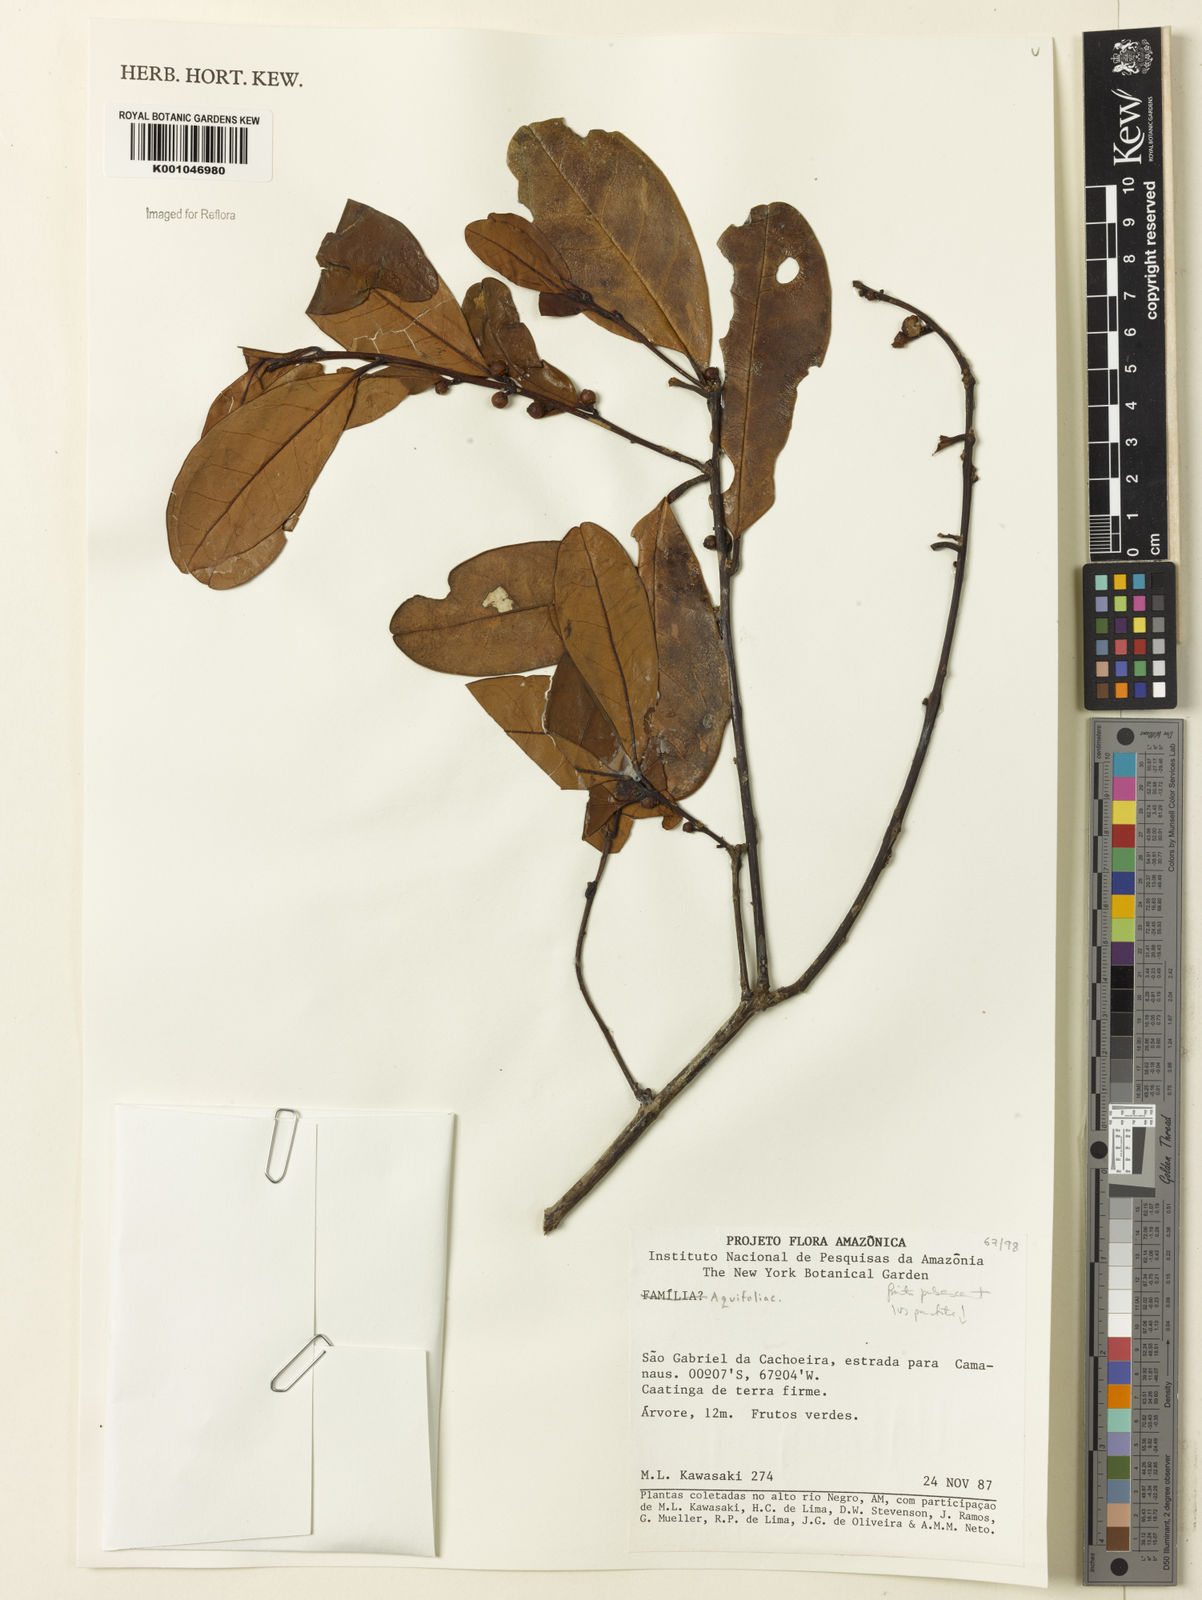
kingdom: Plantae
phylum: Tracheophyta
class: Magnoliopsida
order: Aquifoliales
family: Aquifoliaceae
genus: Ilex
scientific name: Ilex
